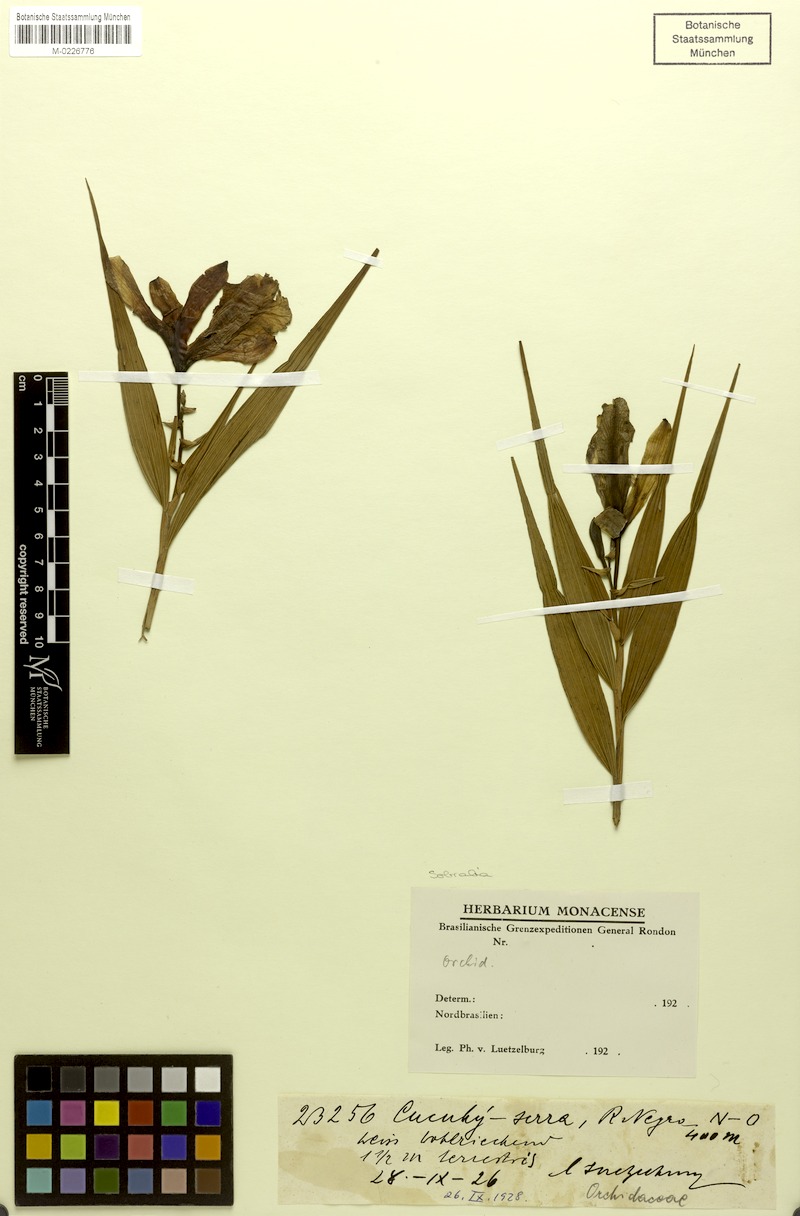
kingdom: Plantae
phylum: Tracheophyta
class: Liliopsida
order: Asparagales
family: Orchidaceae
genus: Sobralia
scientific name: Sobralia
